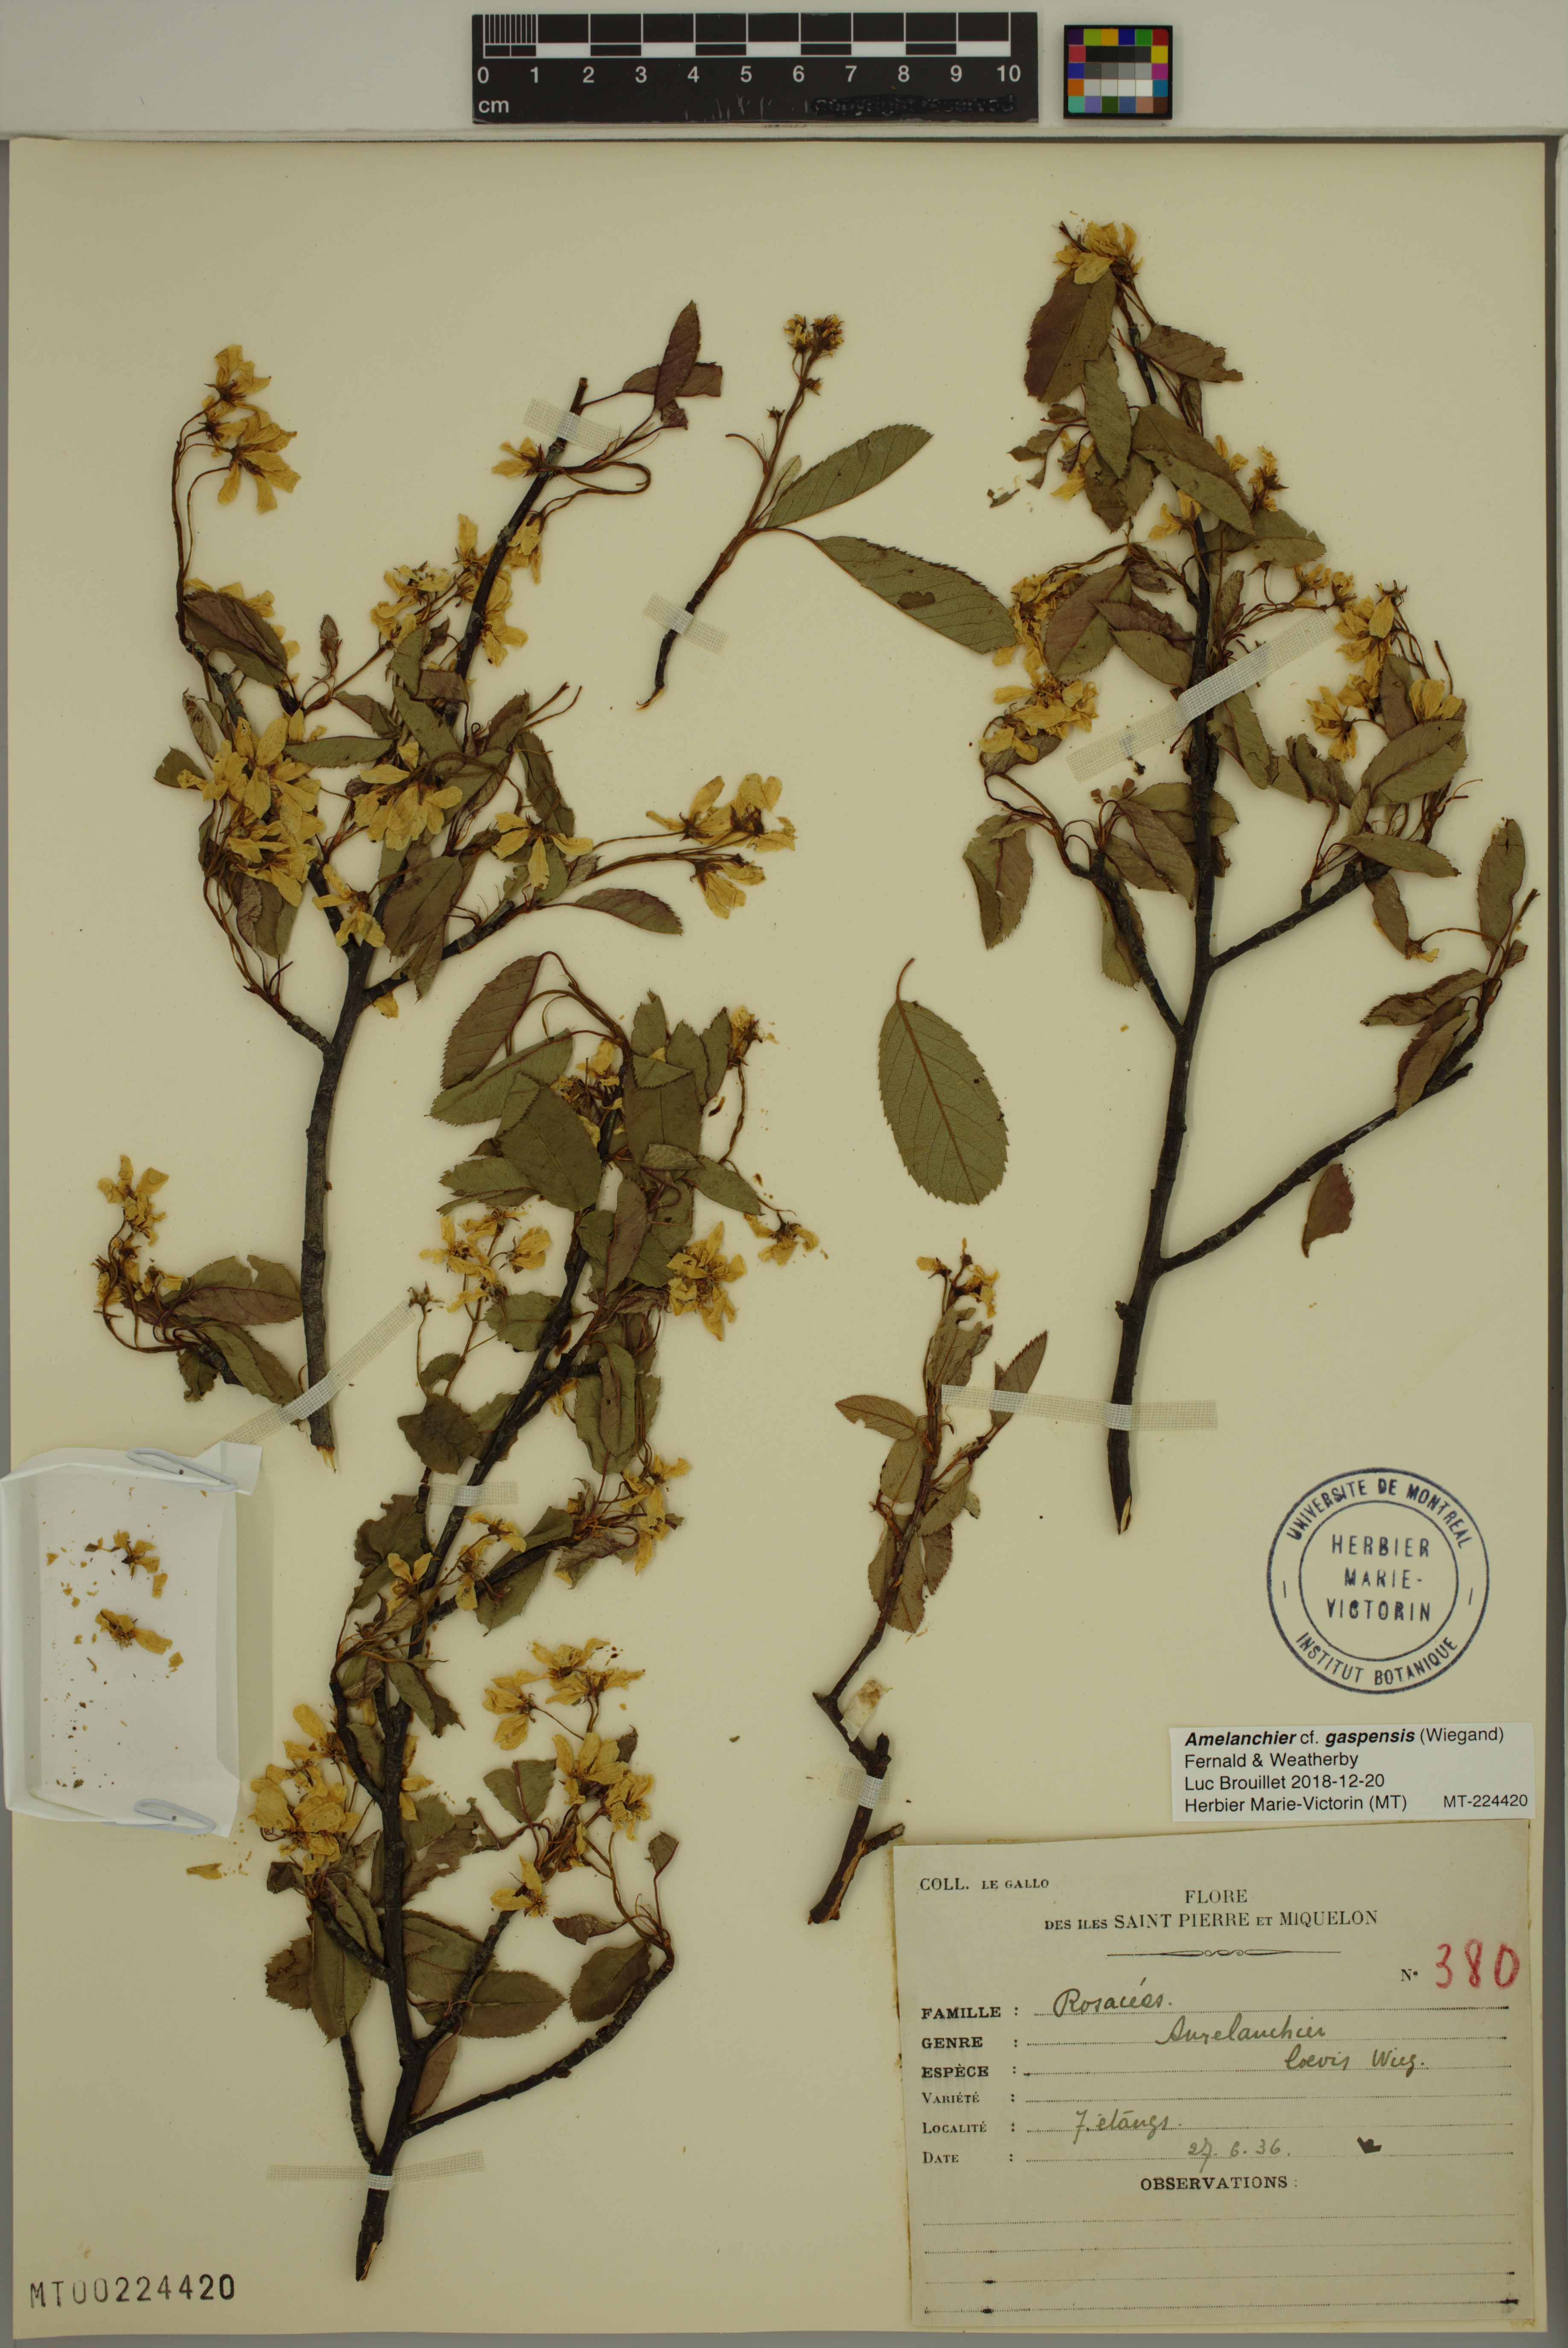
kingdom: Plantae
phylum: Tracheophyta
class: Magnoliopsida
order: Rosales
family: Rosaceae
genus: Amelanchier
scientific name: Amelanchier sanguinea
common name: Huron serviceberry
